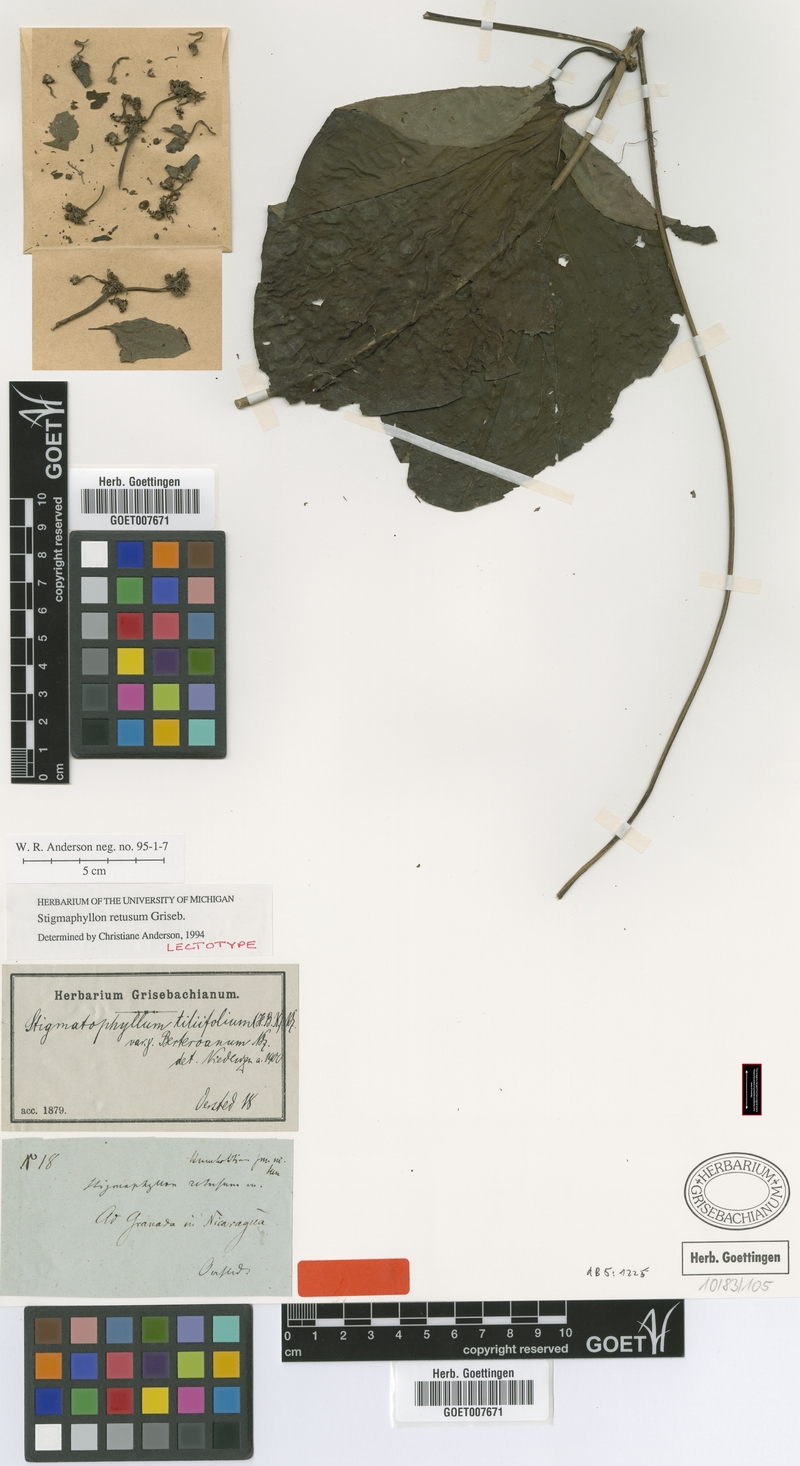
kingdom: Plantae
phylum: Tracheophyta
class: Magnoliopsida
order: Malpighiales
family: Malpighiaceae
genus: Stigmaphyllon
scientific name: Stigmaphyllon retusum
